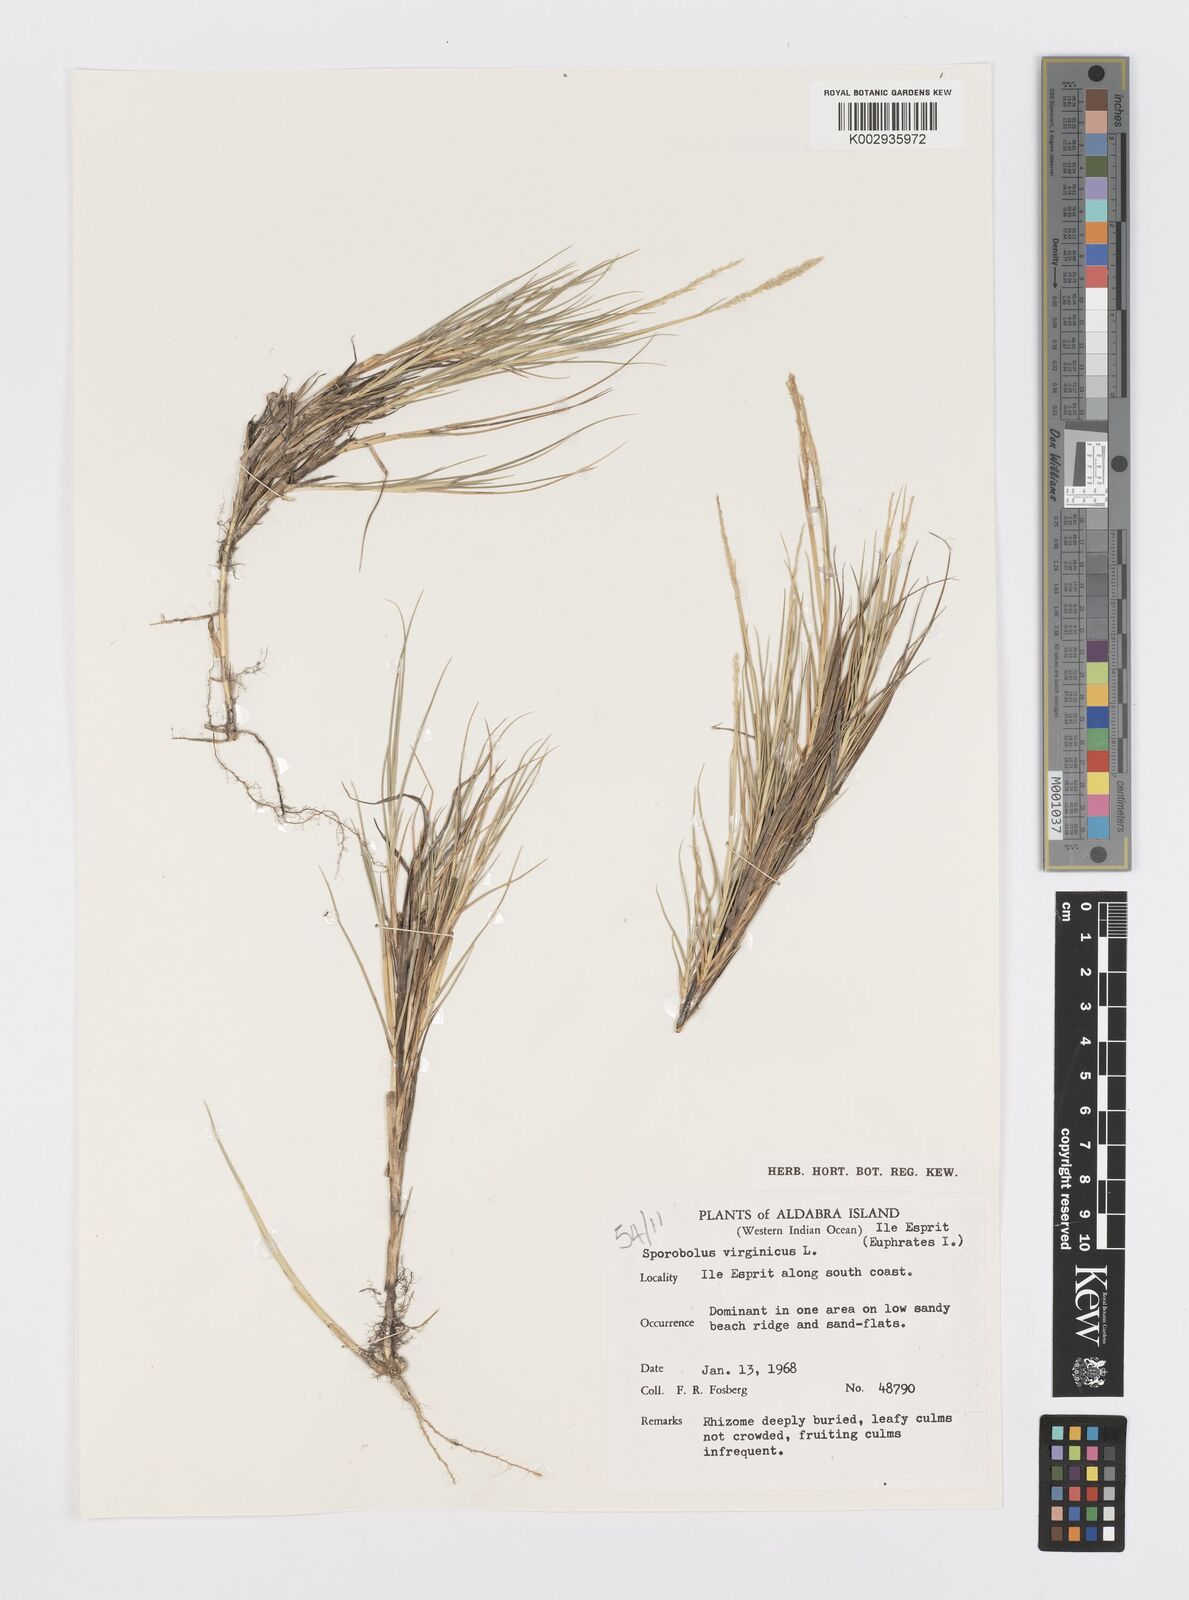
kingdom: Plantae
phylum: Tracheophyta
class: Liliopsida
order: Poales
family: Poaceae
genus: Sporobolus
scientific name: Sporobolus virginicus
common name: Beach dropseed
